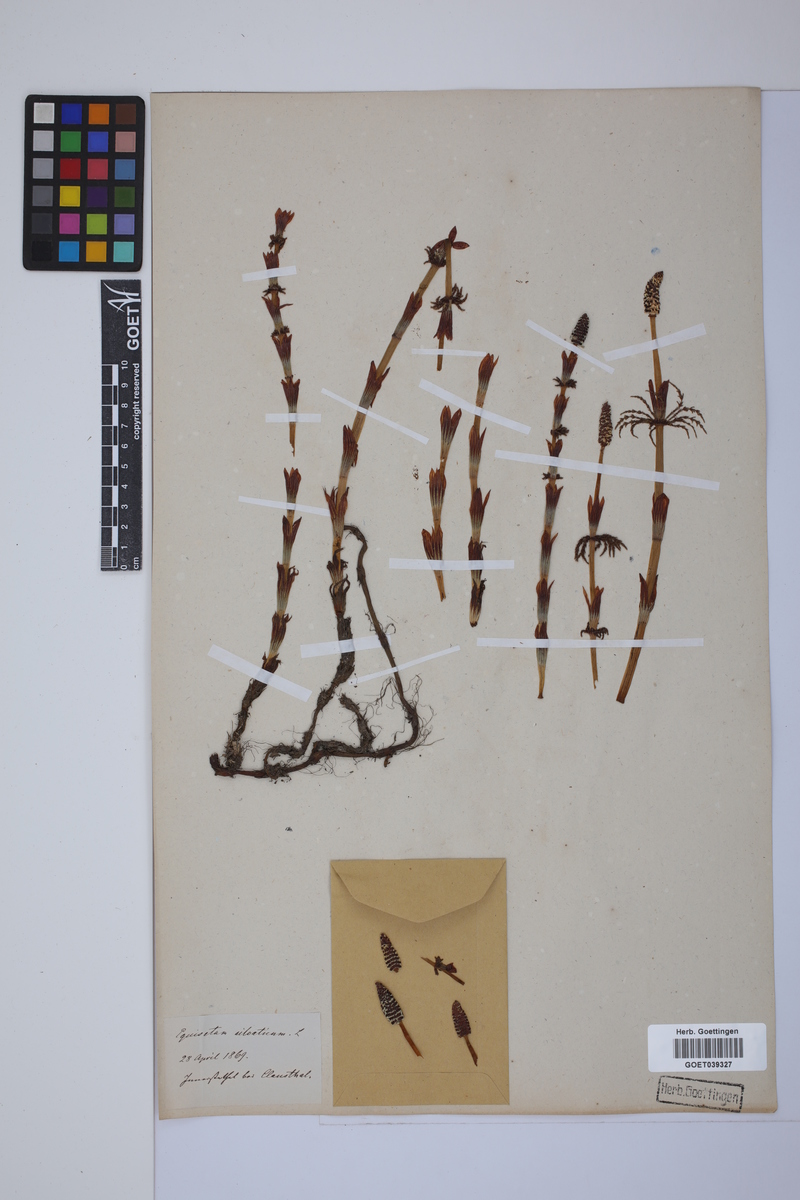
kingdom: Plantae
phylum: Tracheophyta
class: Polypodiopsida
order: Equisetales
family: Equisetaceae
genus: Equisetum
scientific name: Equisetum sylvaticum
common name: Wood horsetail
